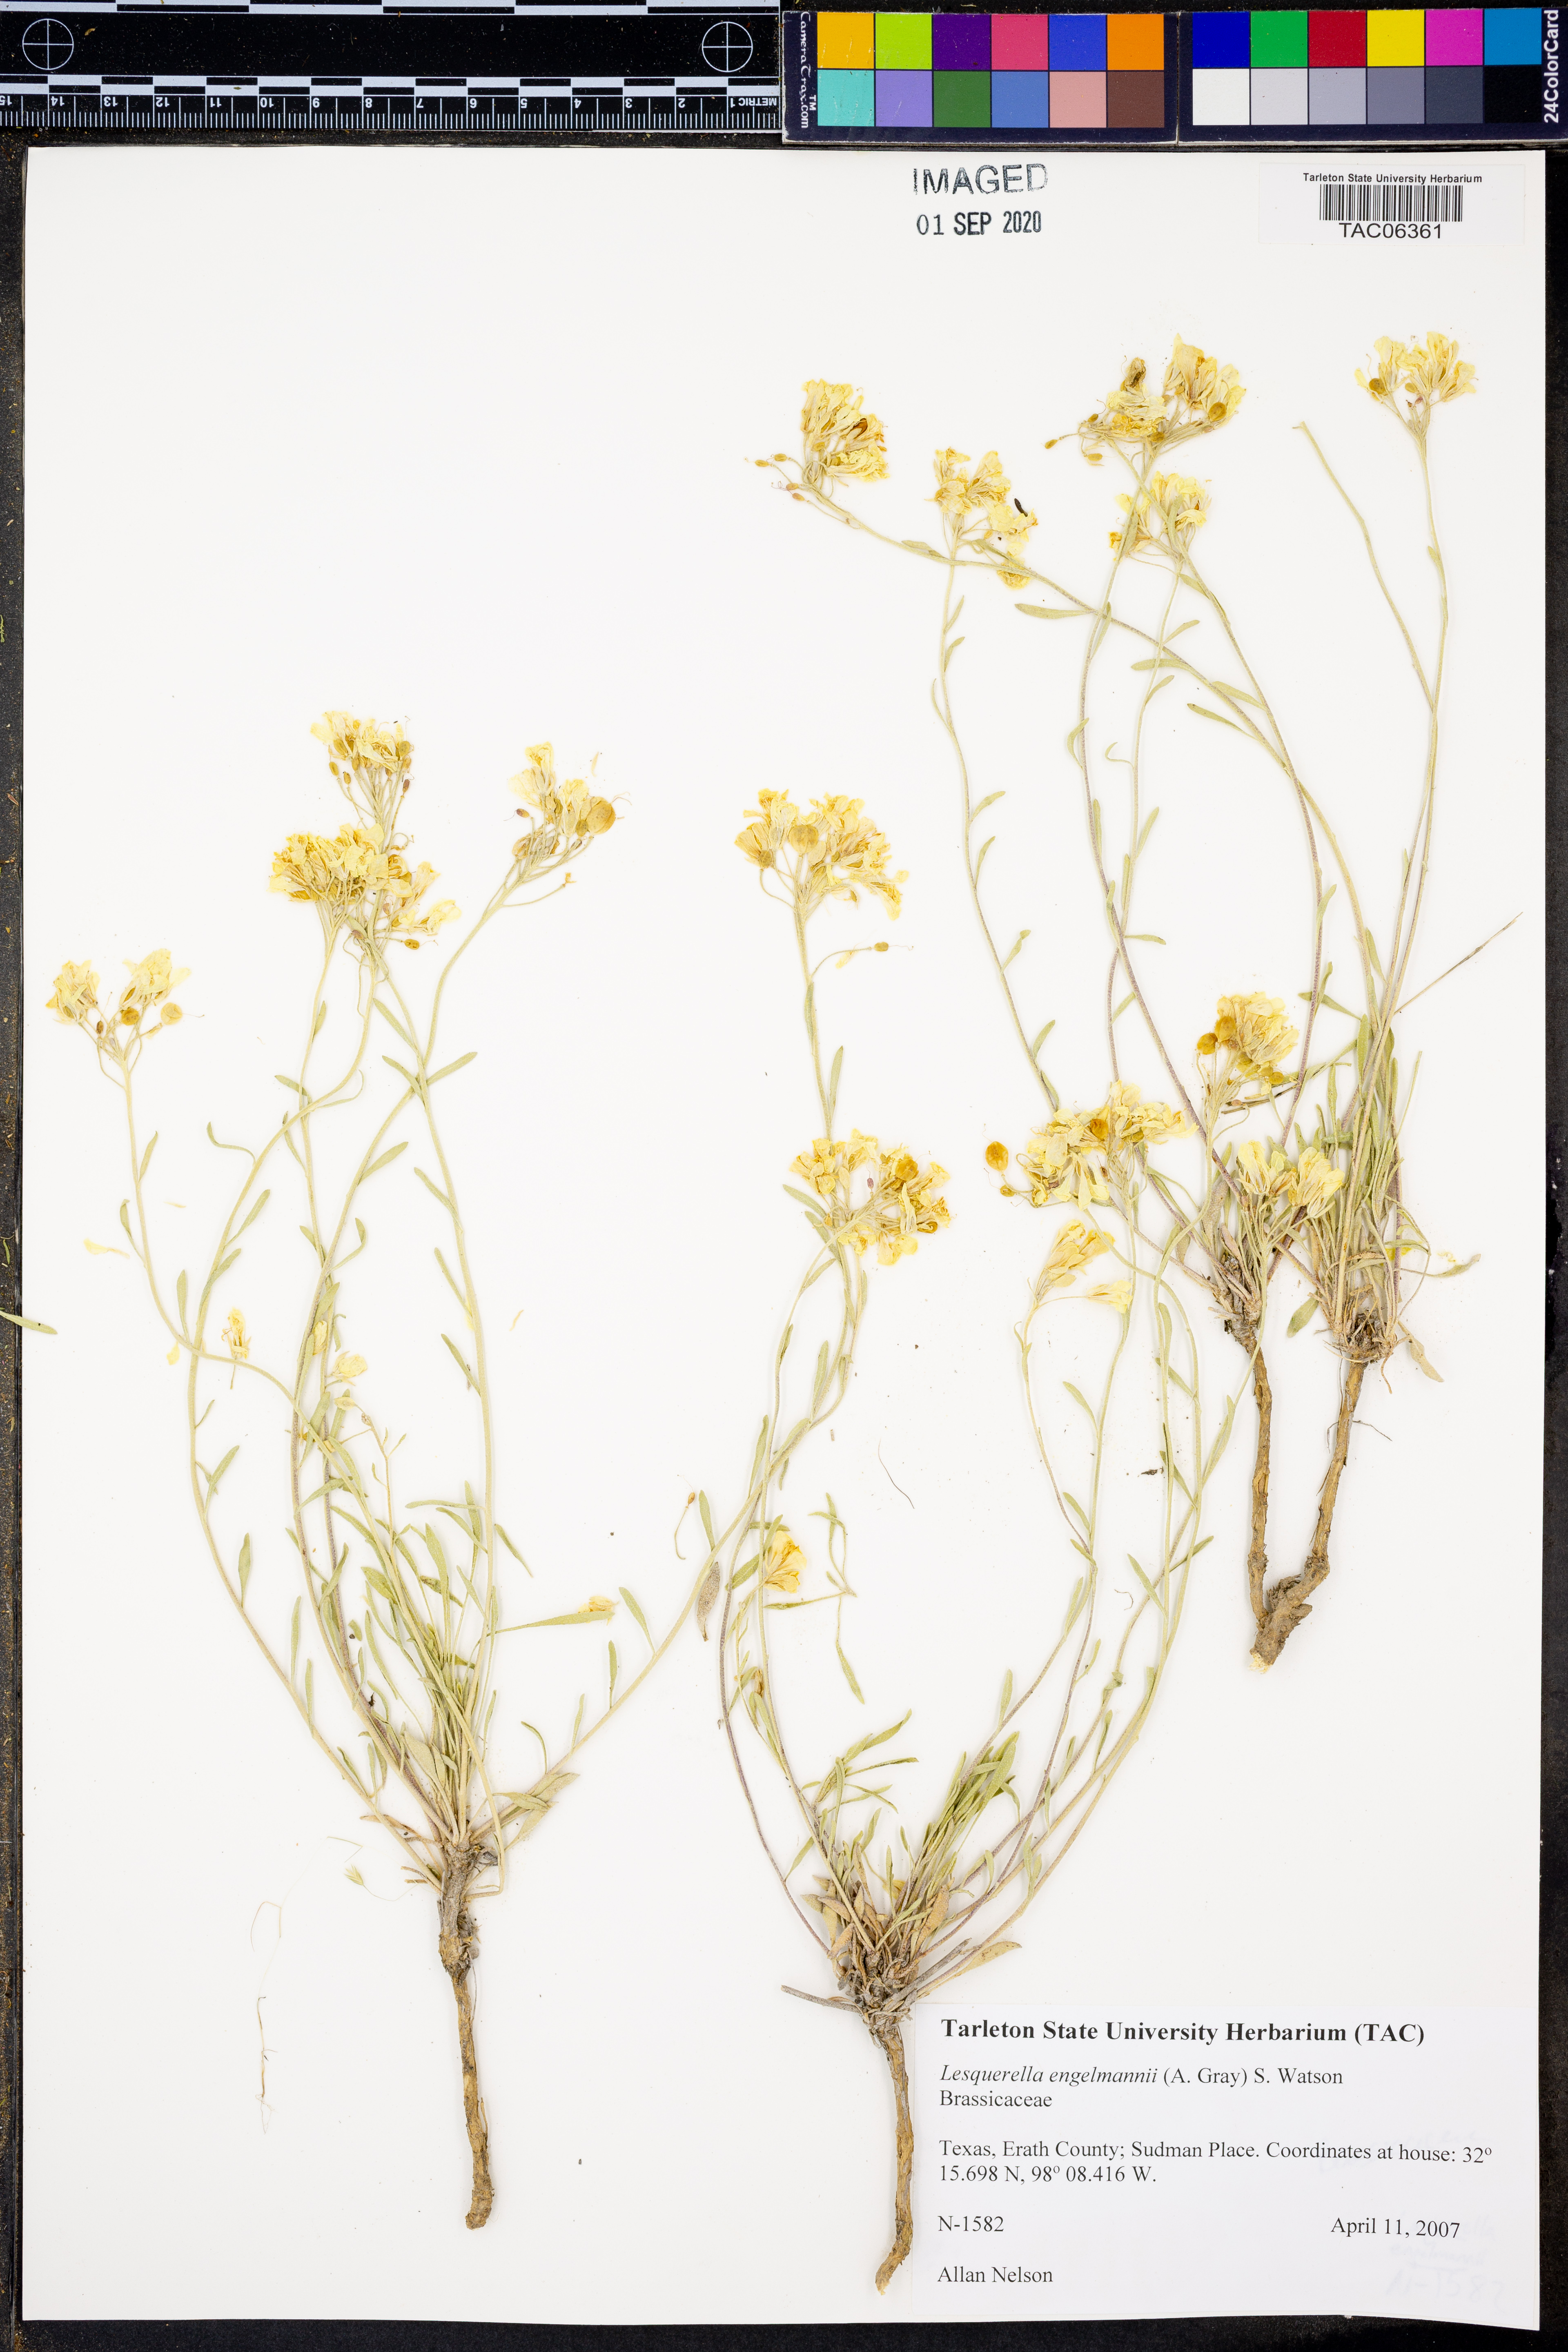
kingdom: Plantae
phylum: Tracheophyta
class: Magnoliopsida
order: Brassicales
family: Brassicaceae
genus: Physaria
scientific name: Physaria engelmannii
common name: Engelmann's bladderpod
